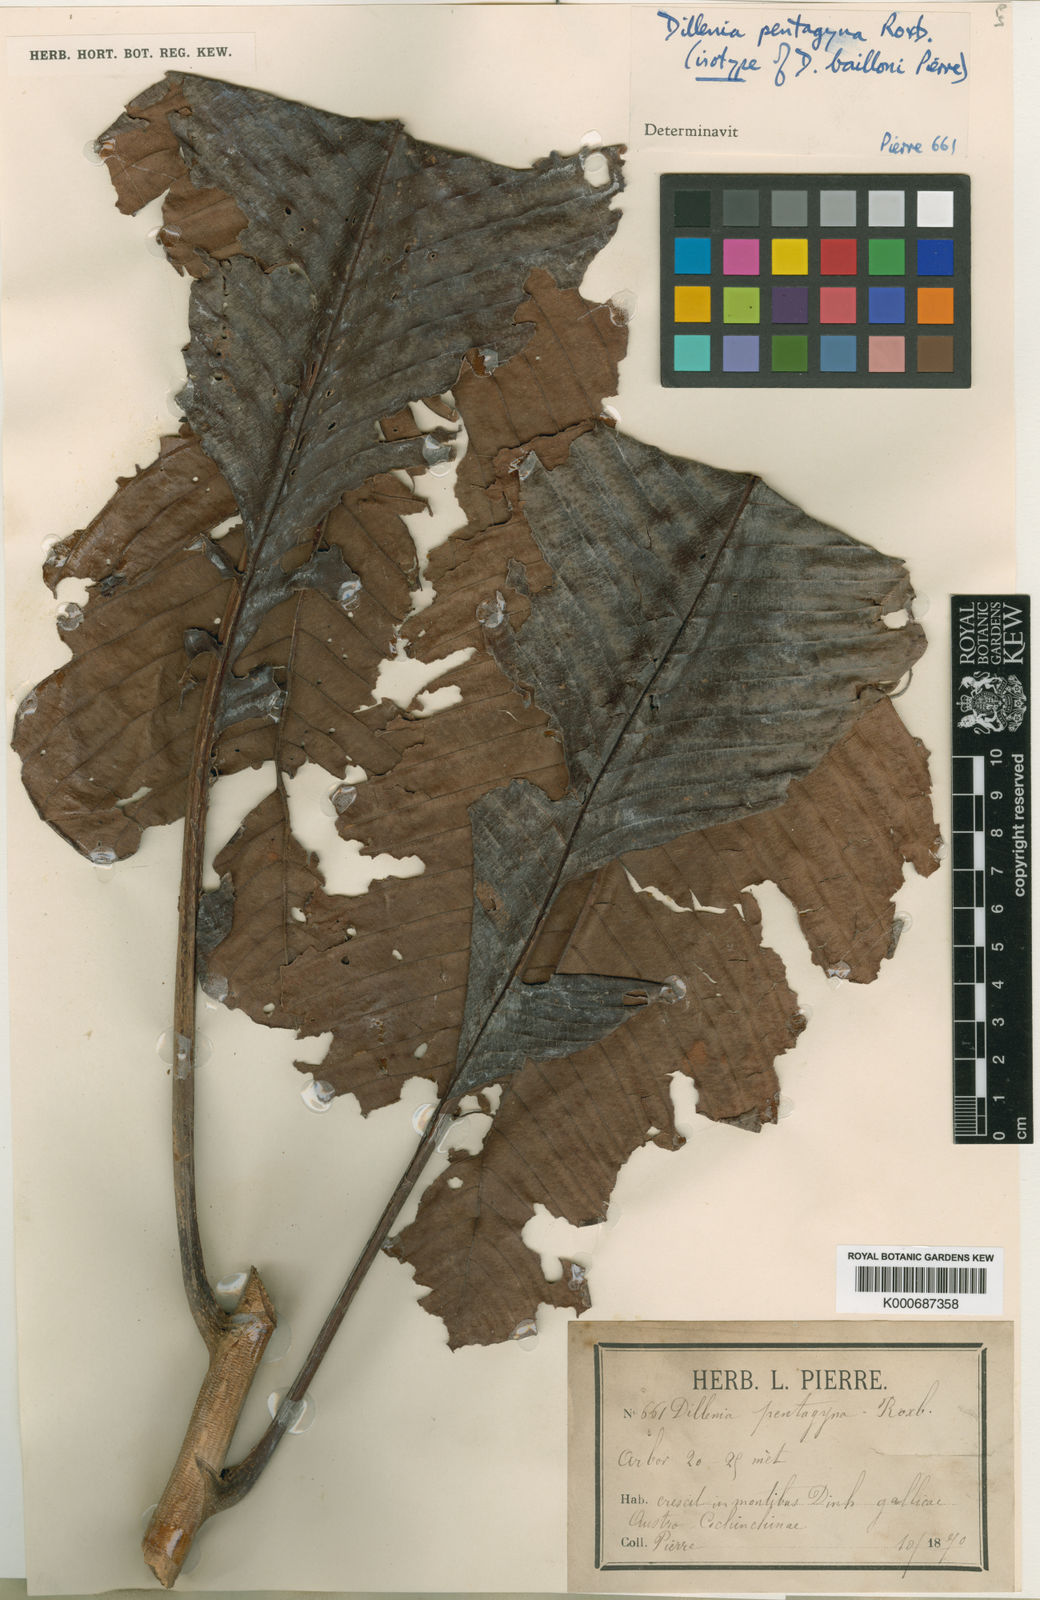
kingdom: Plantae
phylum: Tracheophyta
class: Magnoliopsida
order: Dilleniales
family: Dilleniaceae
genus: Dillenia
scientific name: Dillenia pentagyna
